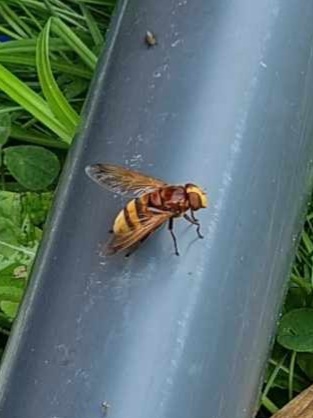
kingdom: Animalia
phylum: Arthropoda
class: Insecta
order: Diptera
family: Syrphidae
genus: Volucella
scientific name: Volucella zonaria
